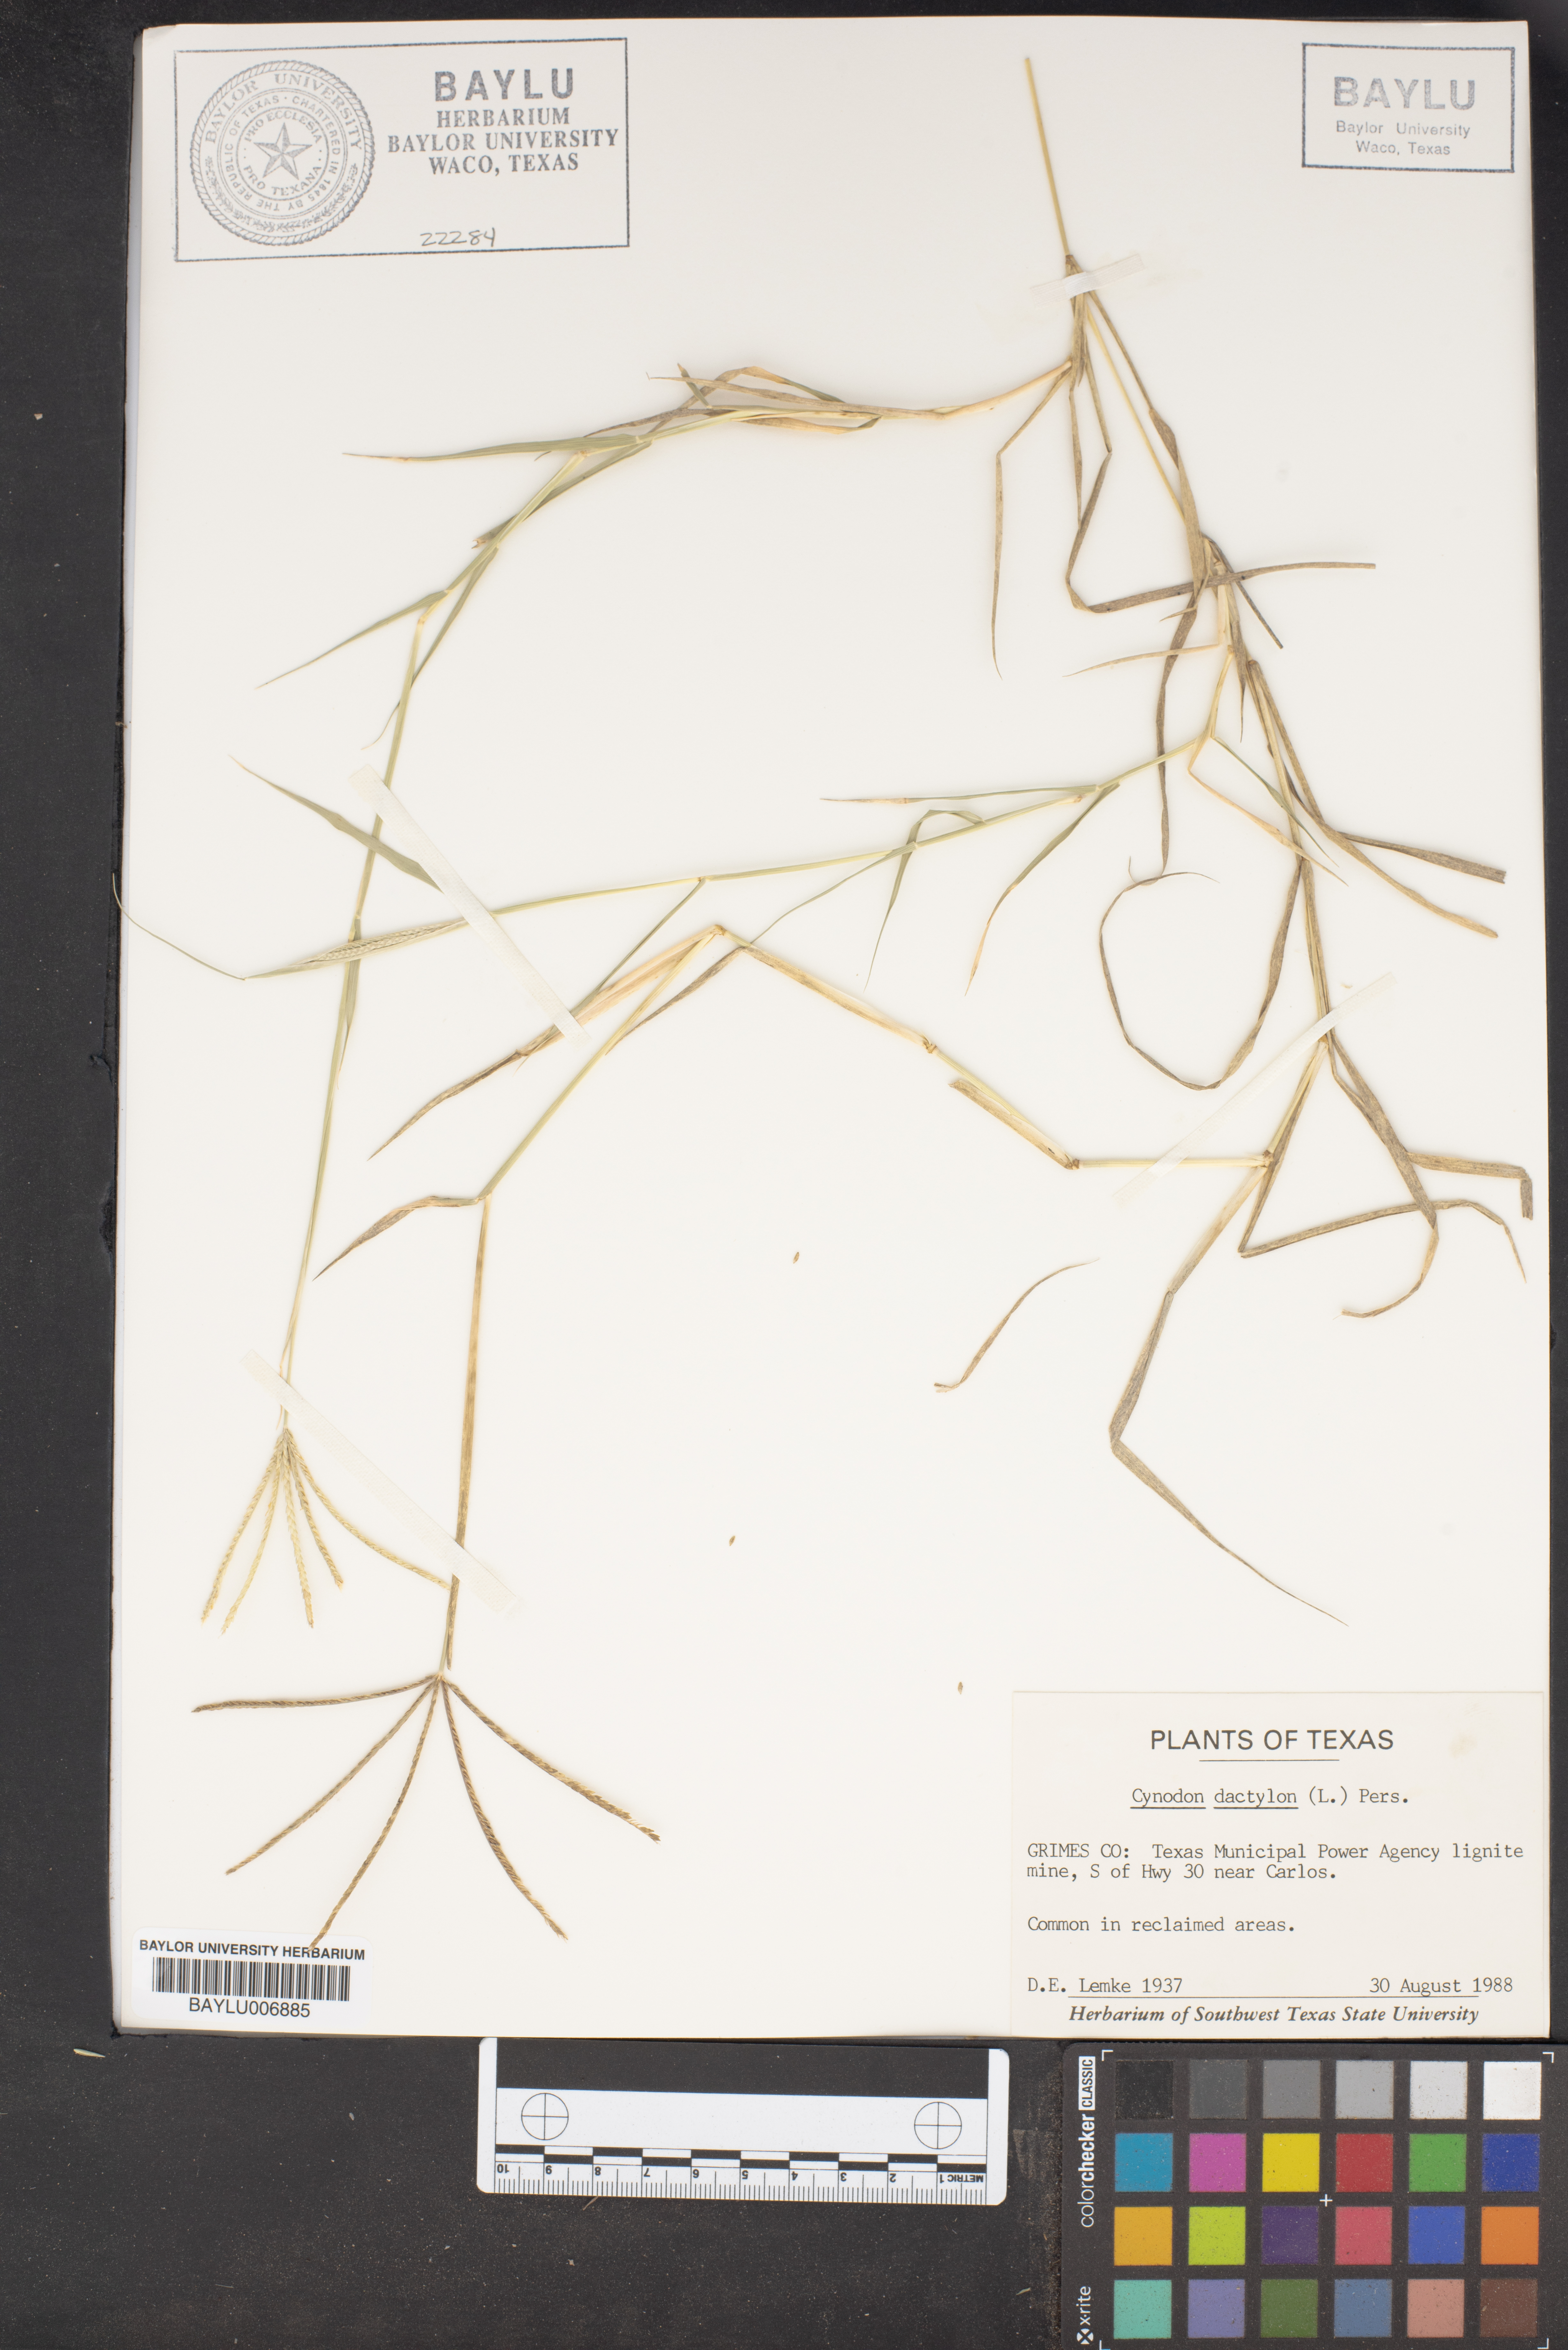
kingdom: Plantae
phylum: Tracheophyta
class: Liliopsida
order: Poales
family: Poaceae
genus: Cynodon
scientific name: Cynodon dactylon
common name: Bermuda grass
